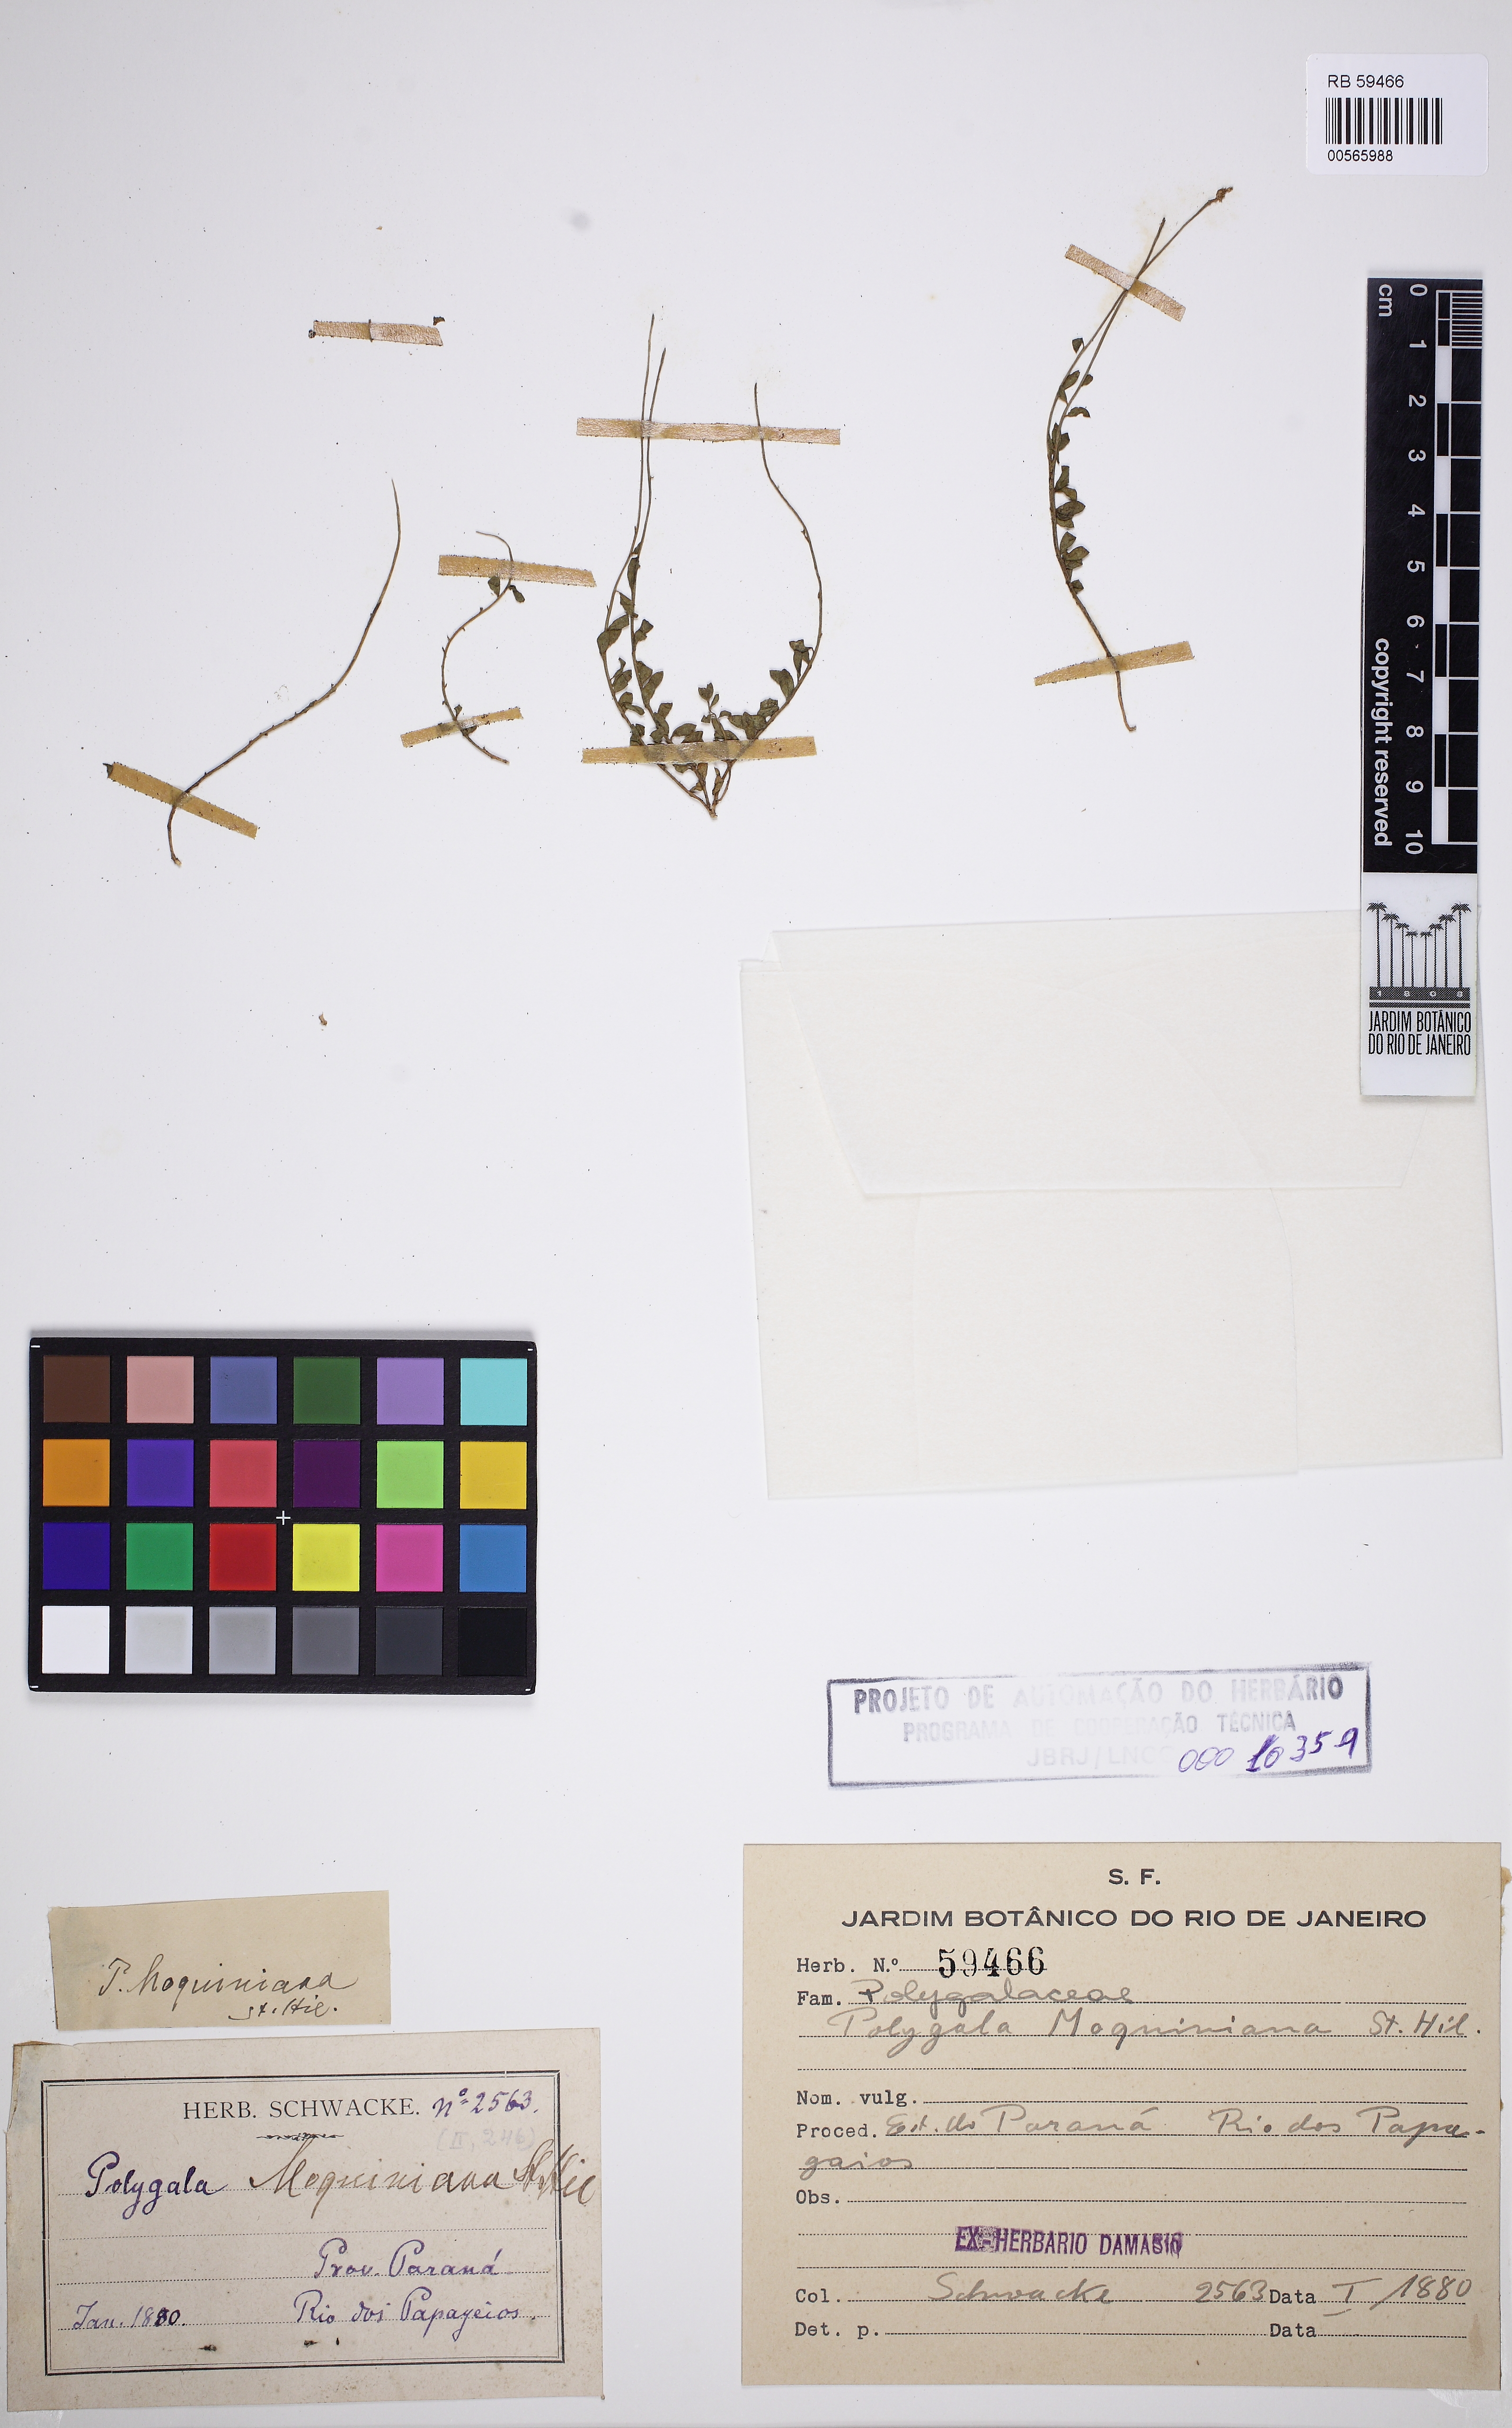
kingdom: Plantae
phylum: Tracheophyta
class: Magnoliopsida
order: Fabales
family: Polygalaceae
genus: Polygala
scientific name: Polygala moquiniana
